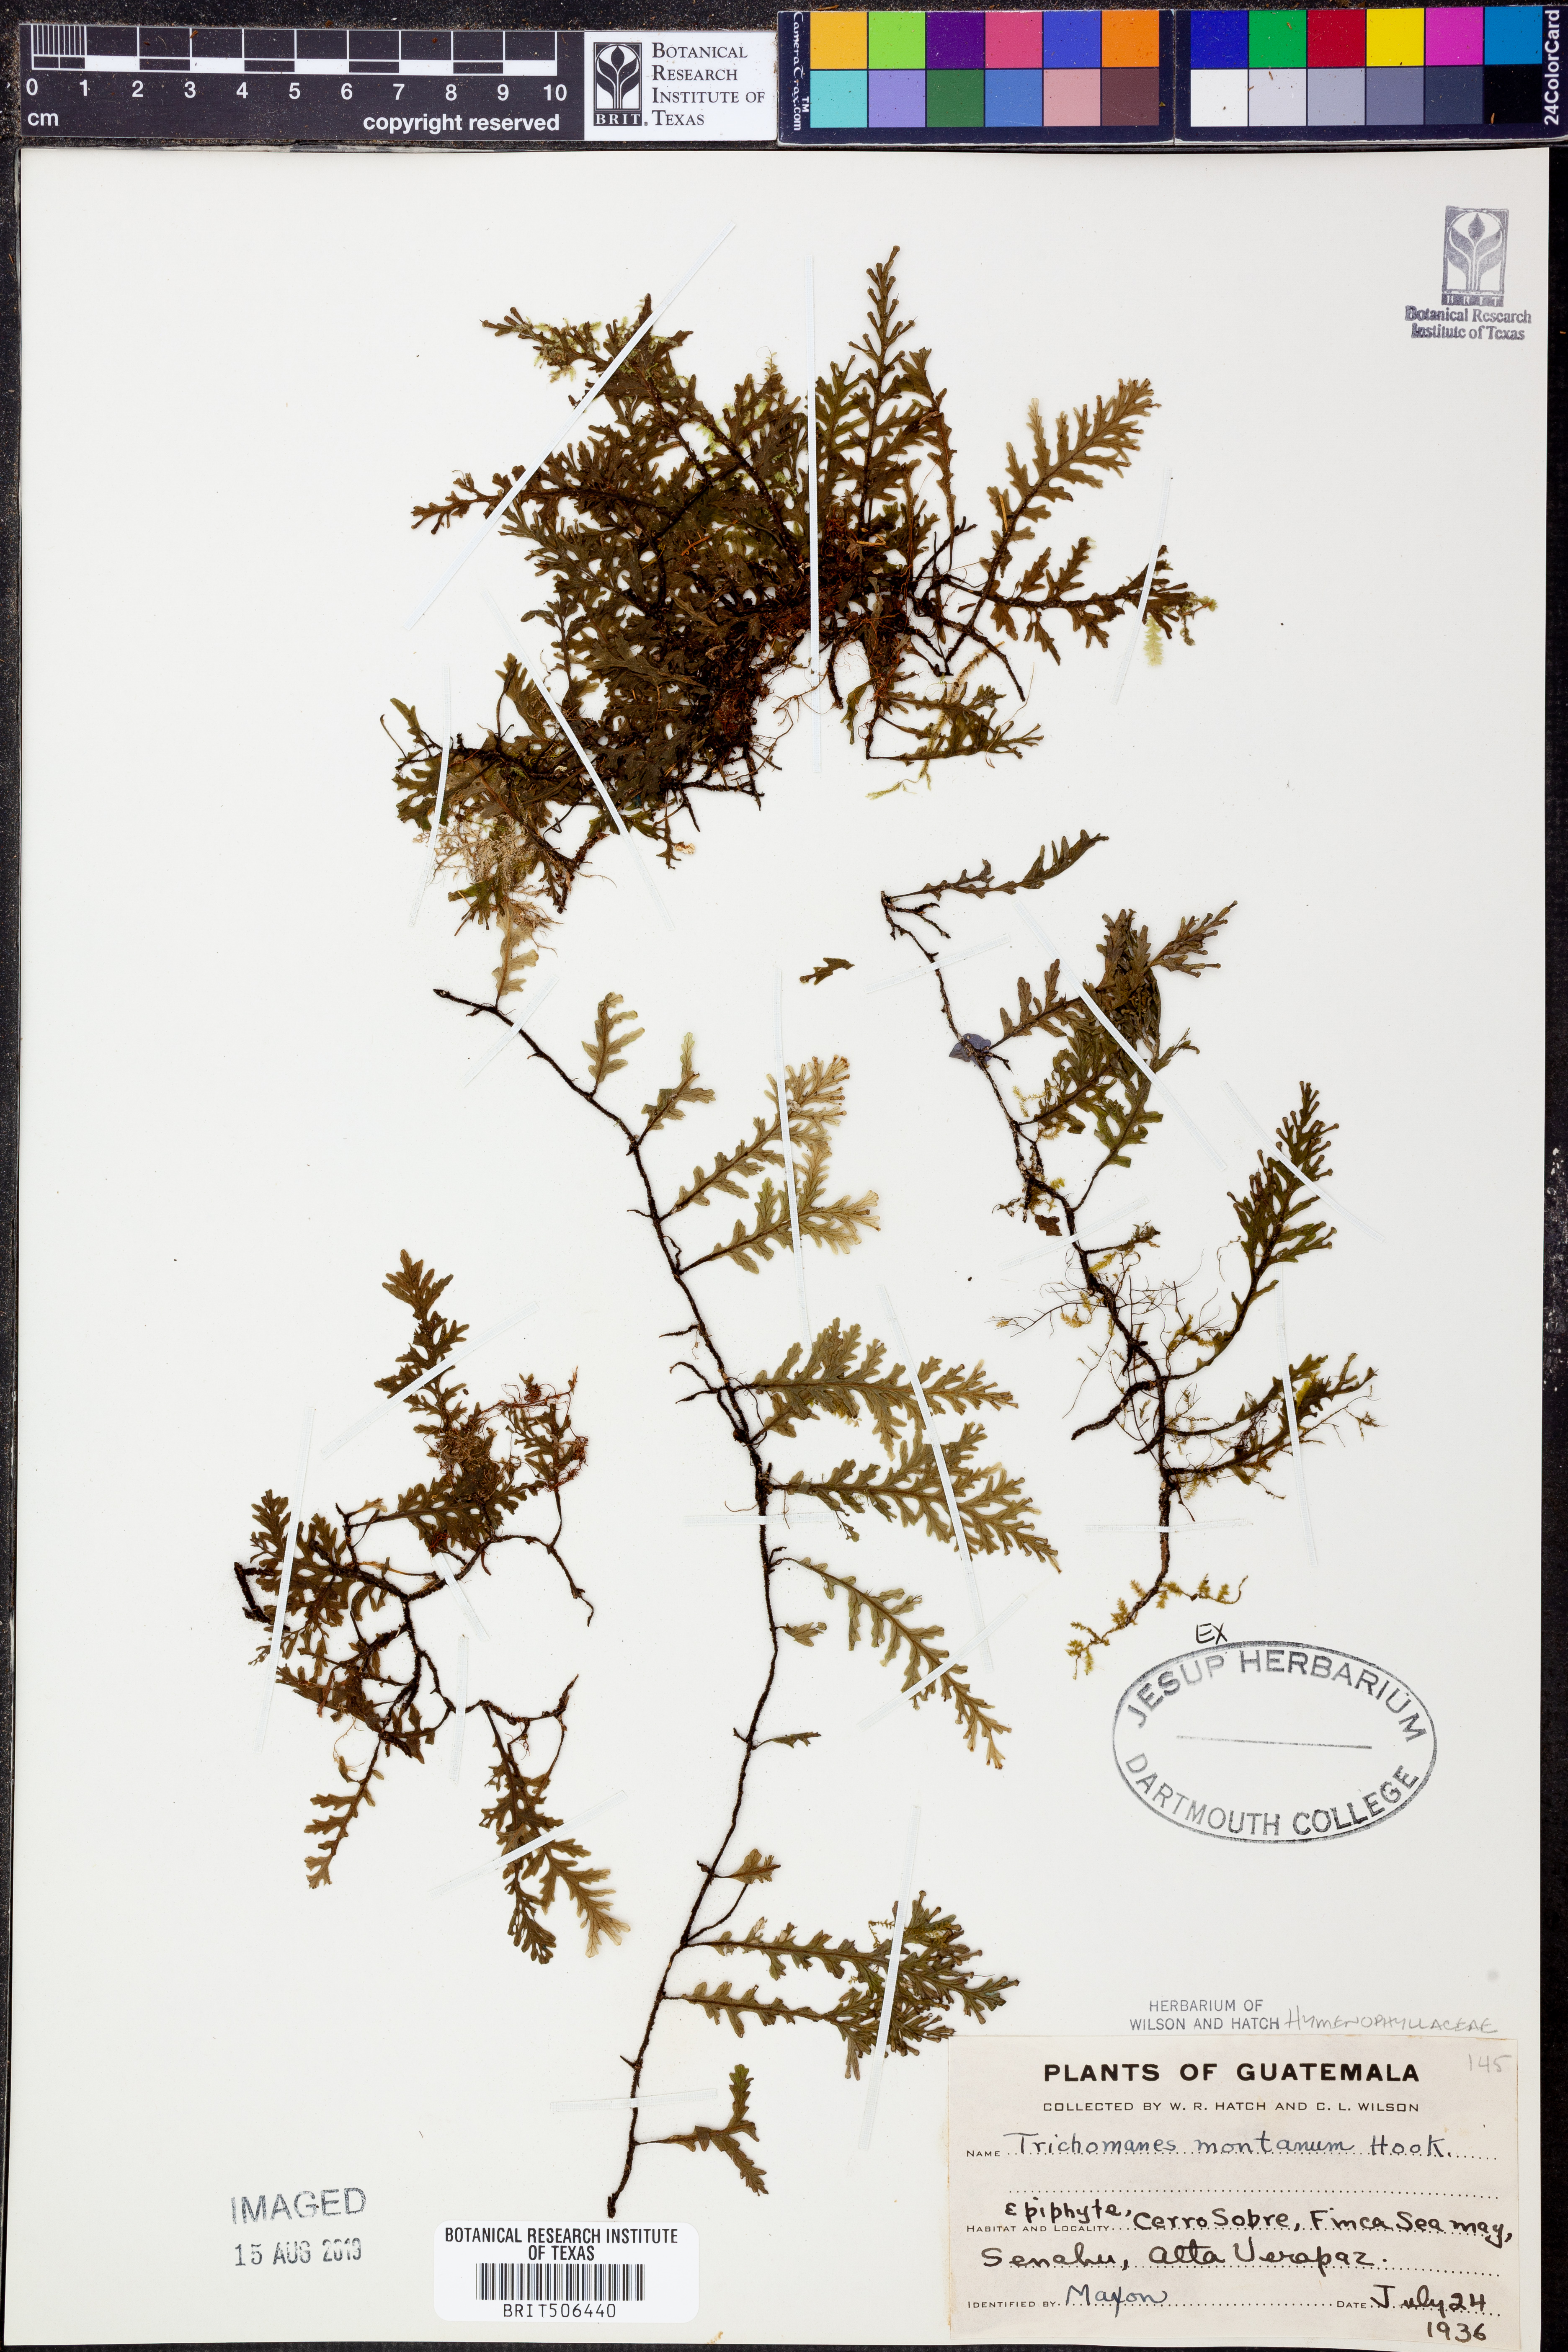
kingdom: Plantae
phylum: Tracheophyta
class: Polypodiopsida
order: Hymenophyllales
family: Hymenophyllaceae
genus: Didymoglossum
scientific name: Didymoglossum
